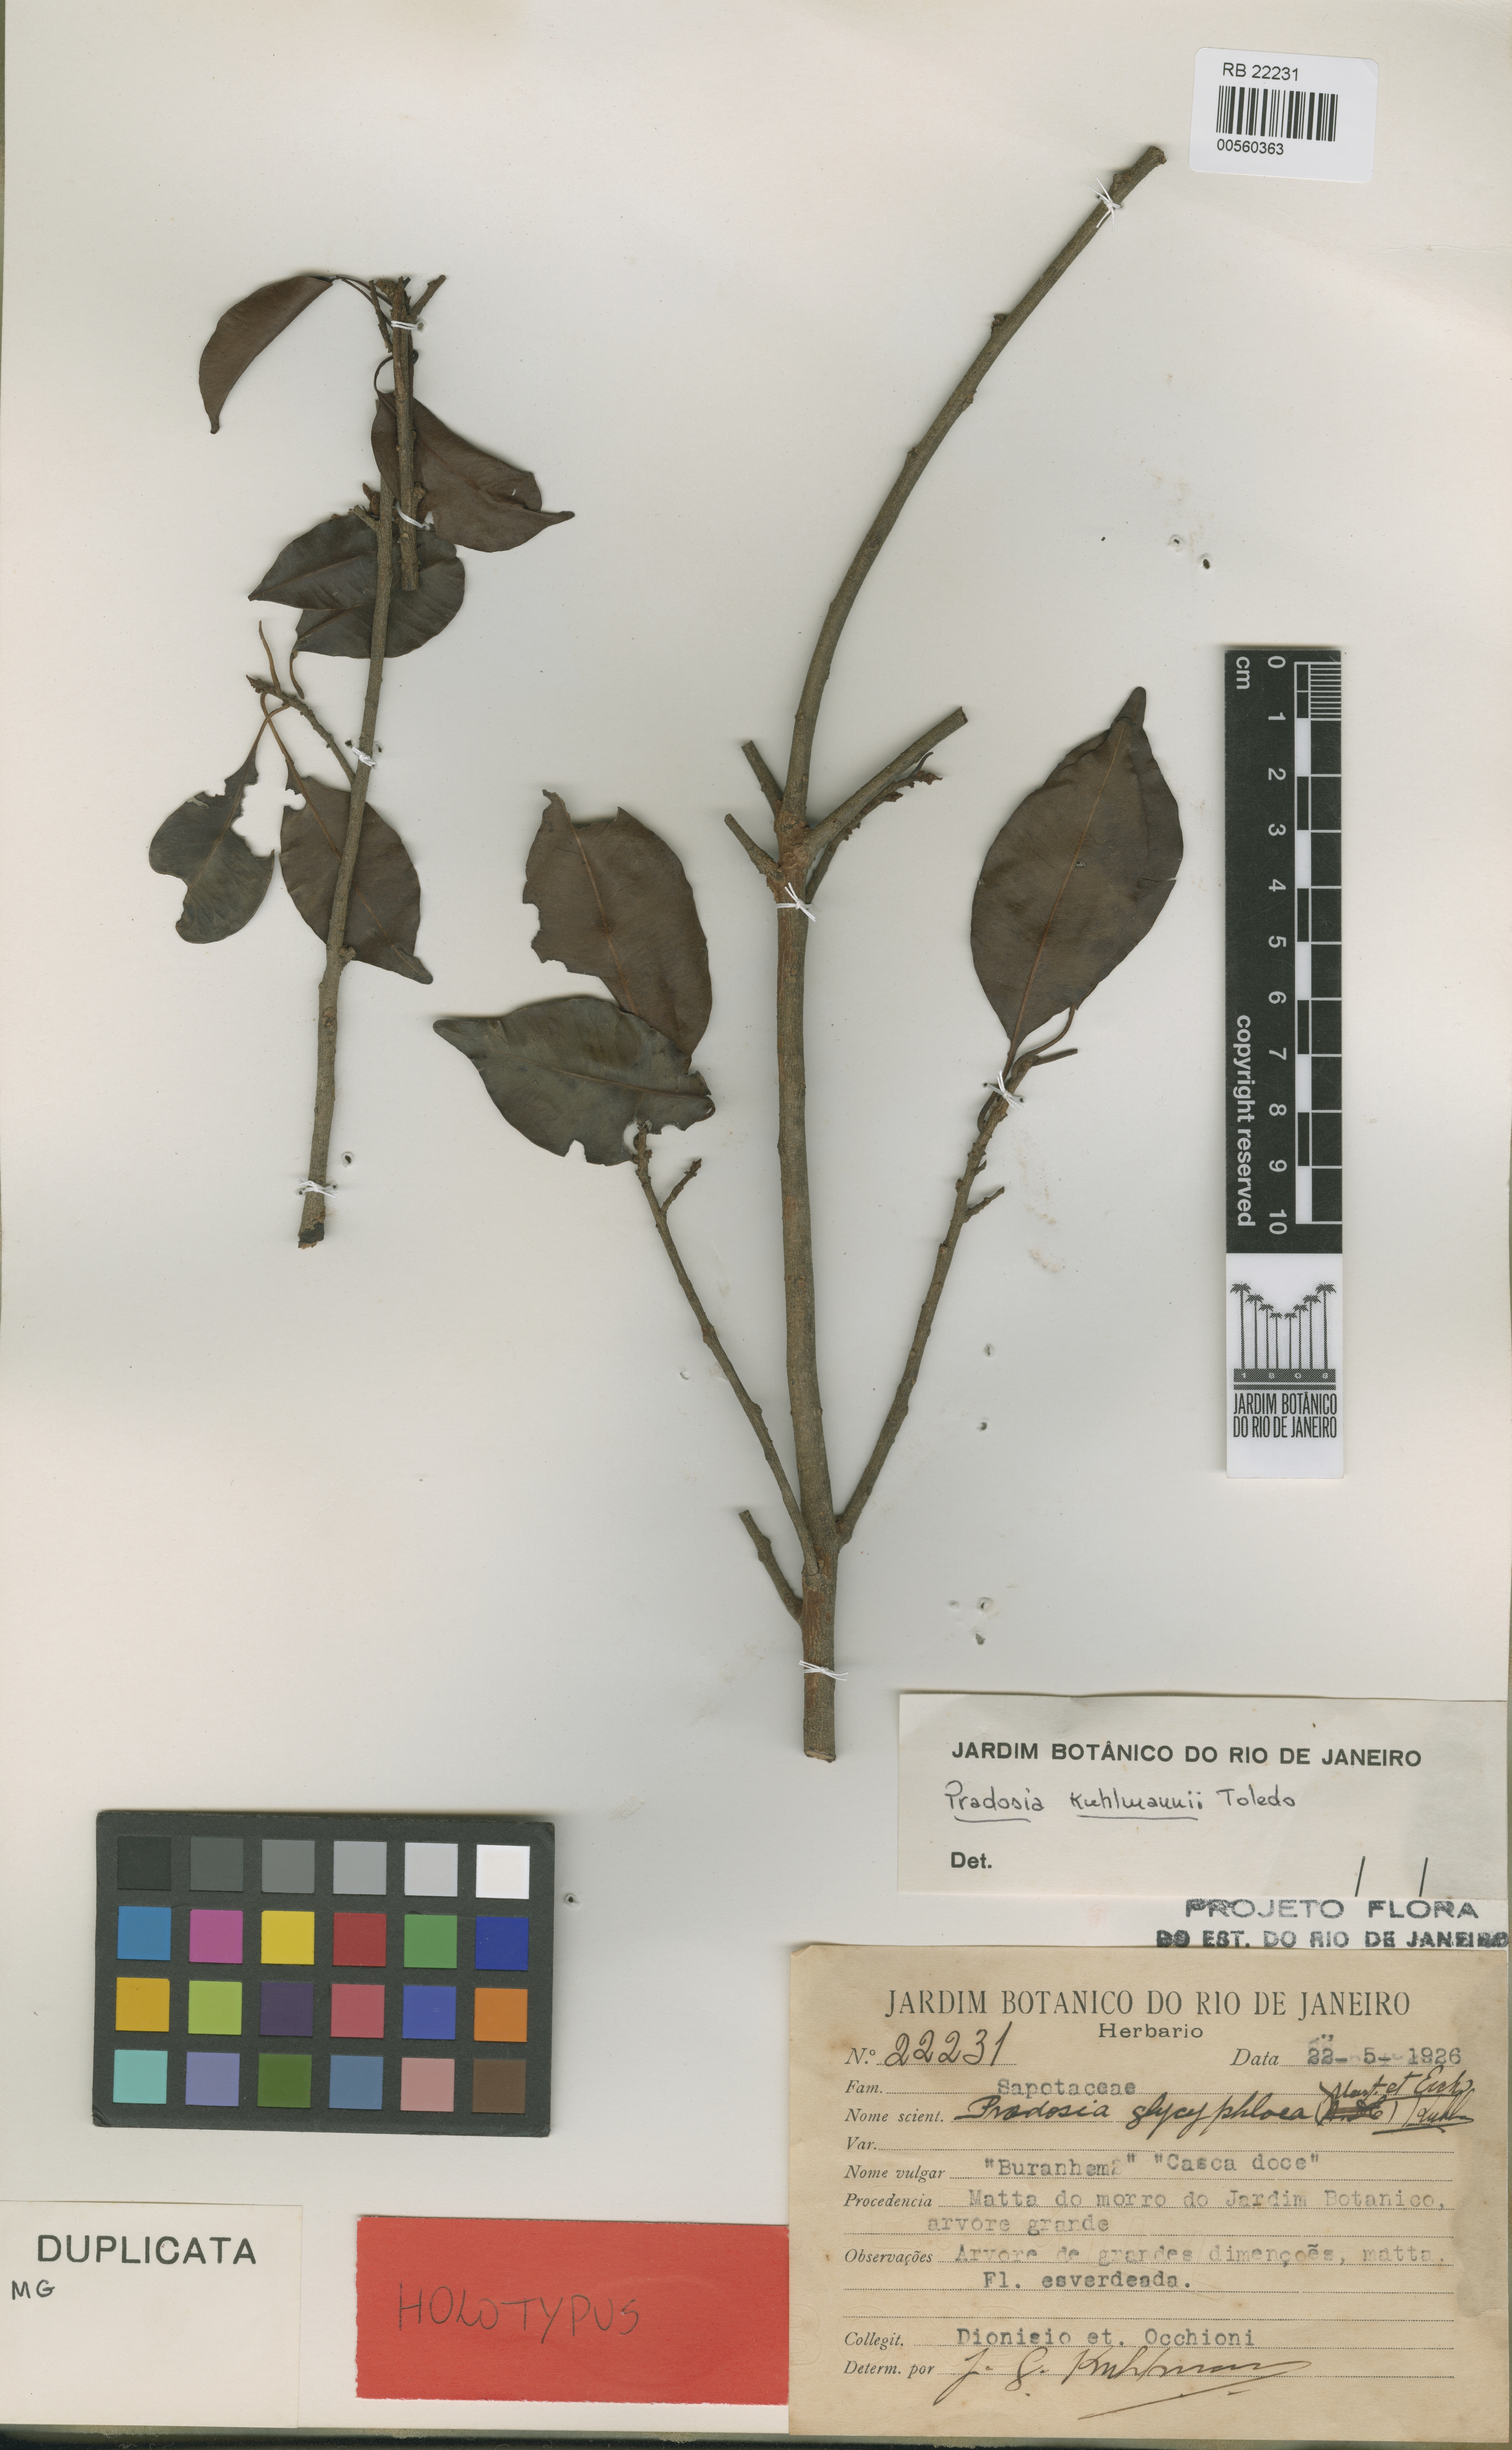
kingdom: Plantae
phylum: Tracheophyta
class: Magnoliopsida
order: Ericales
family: Sapotaceae
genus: Pradosia
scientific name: Pradosia kuhlmannii
